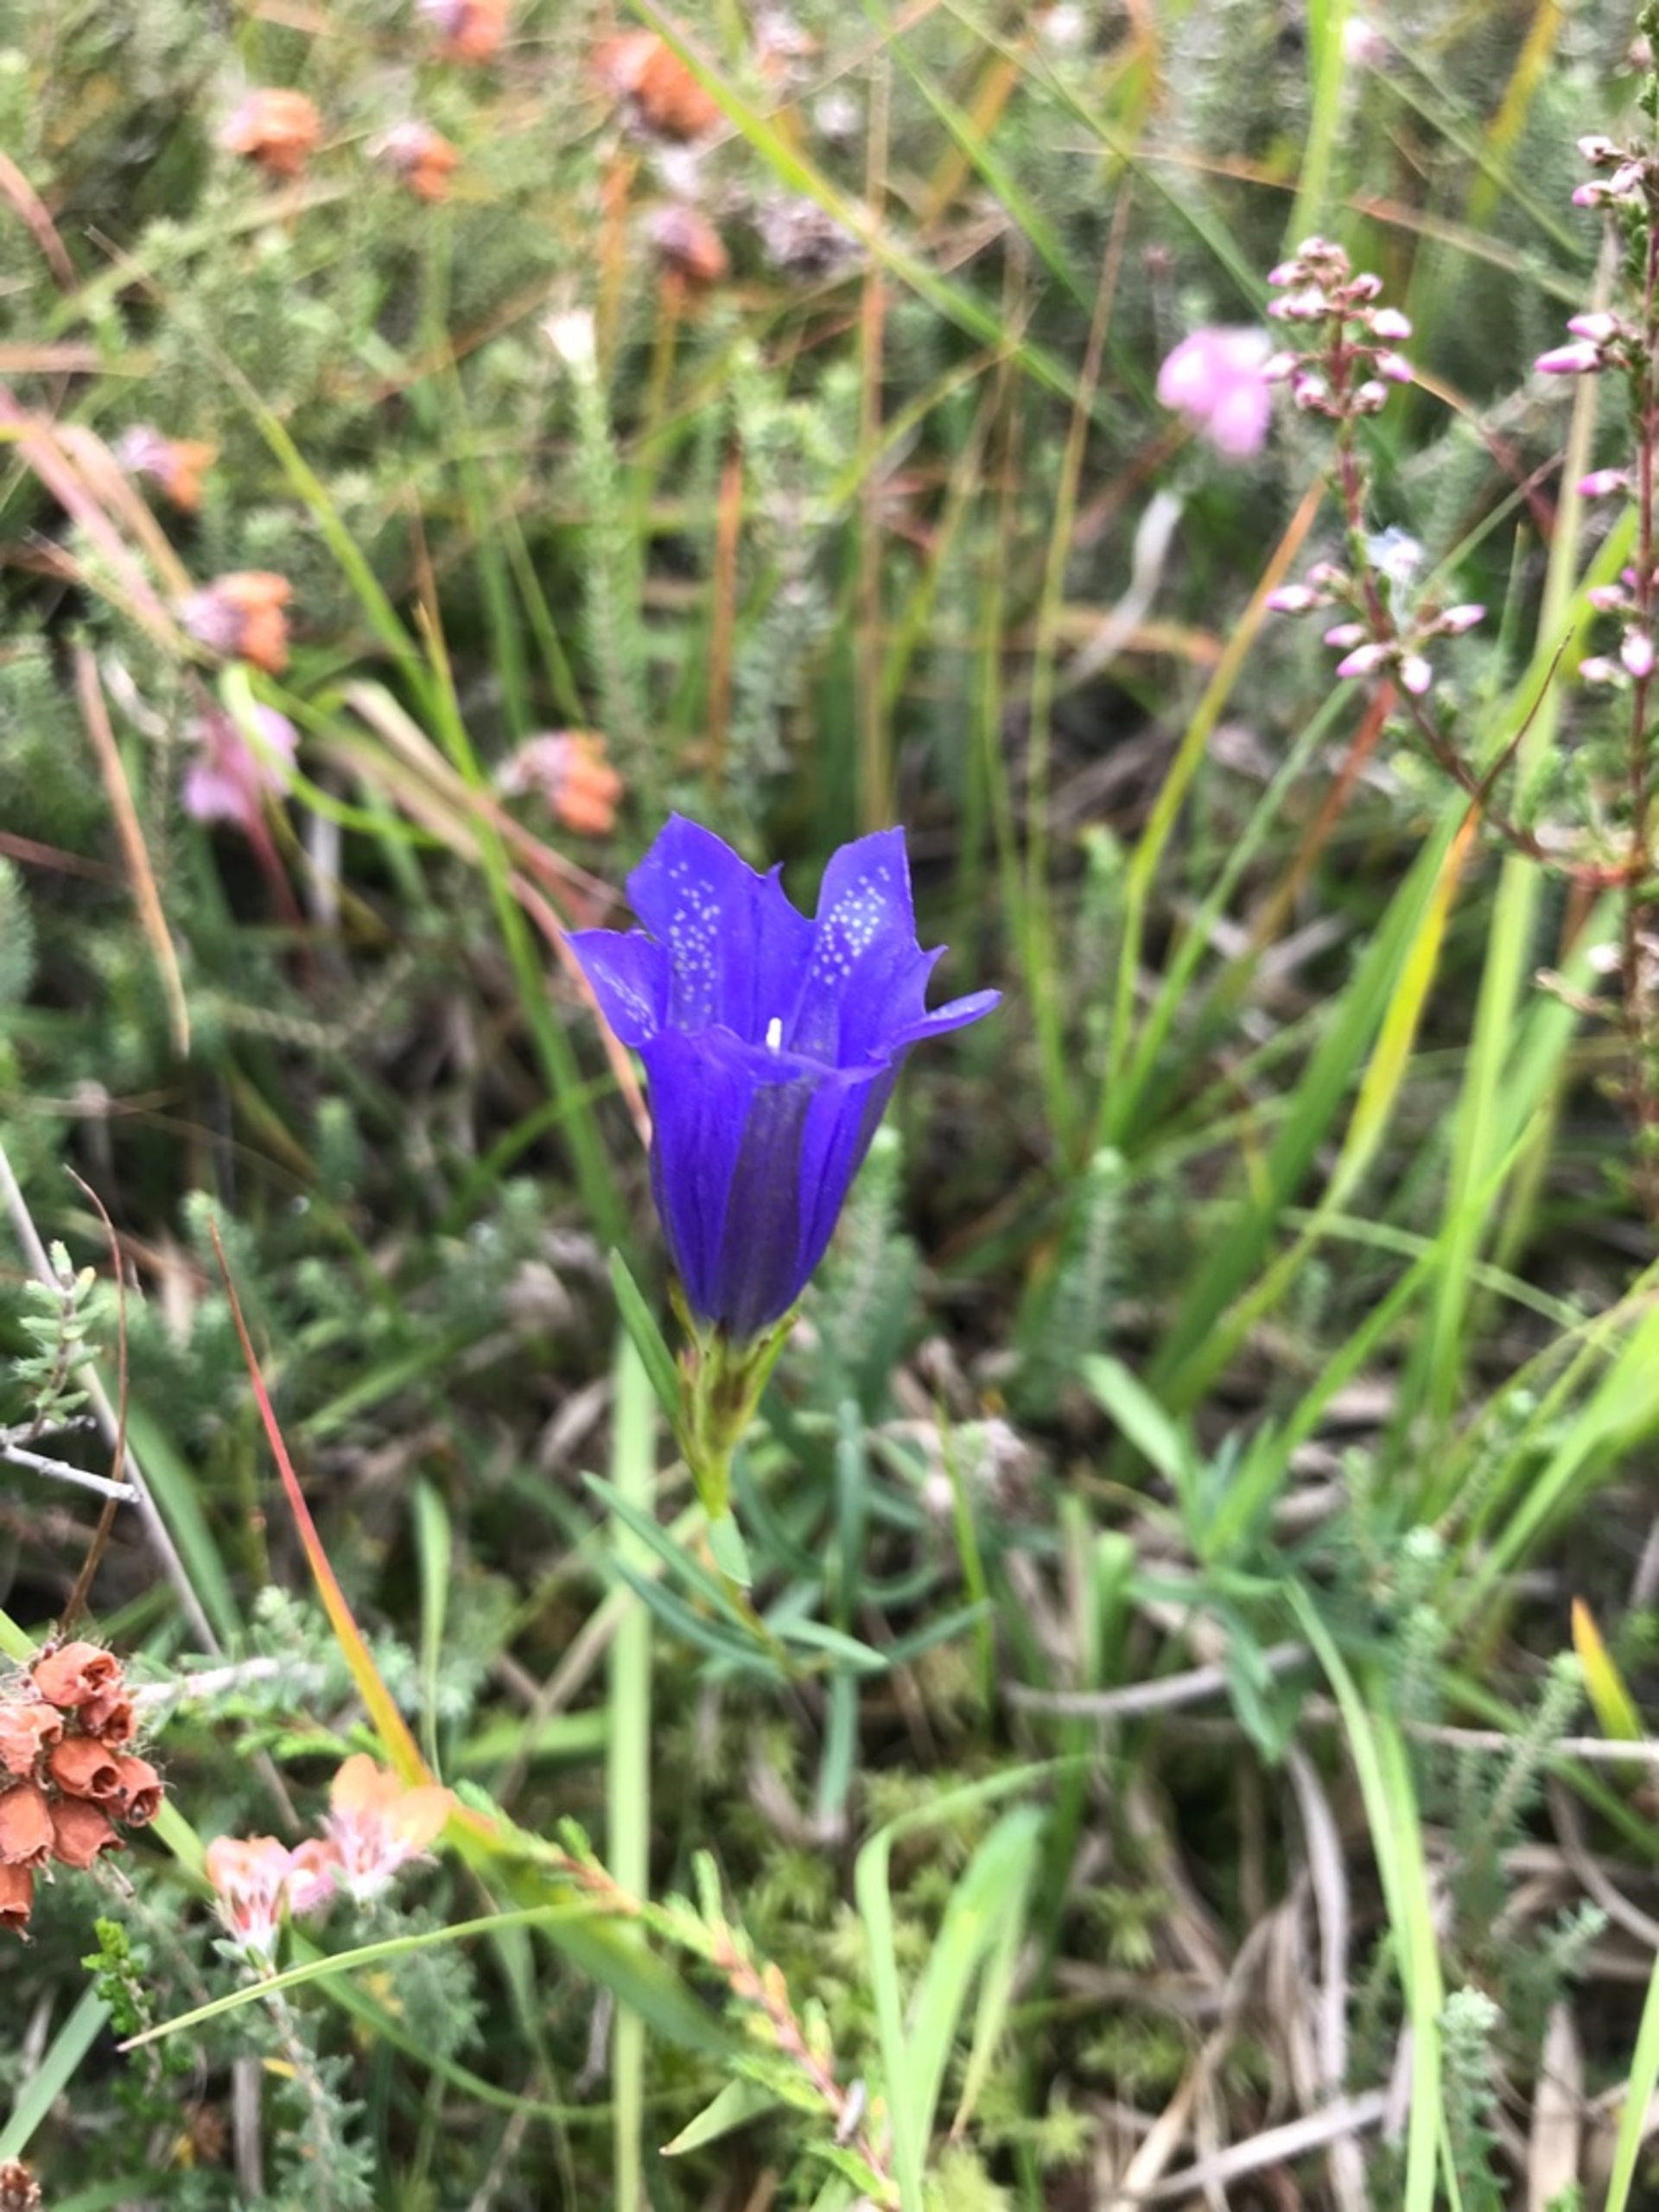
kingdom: Plantae
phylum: Tracheophyta
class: Magnoliopsida
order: Gentianales
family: Gentianaceae
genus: Gentiana
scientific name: Gentiana pneumonanthe
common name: Klokke-ensian
